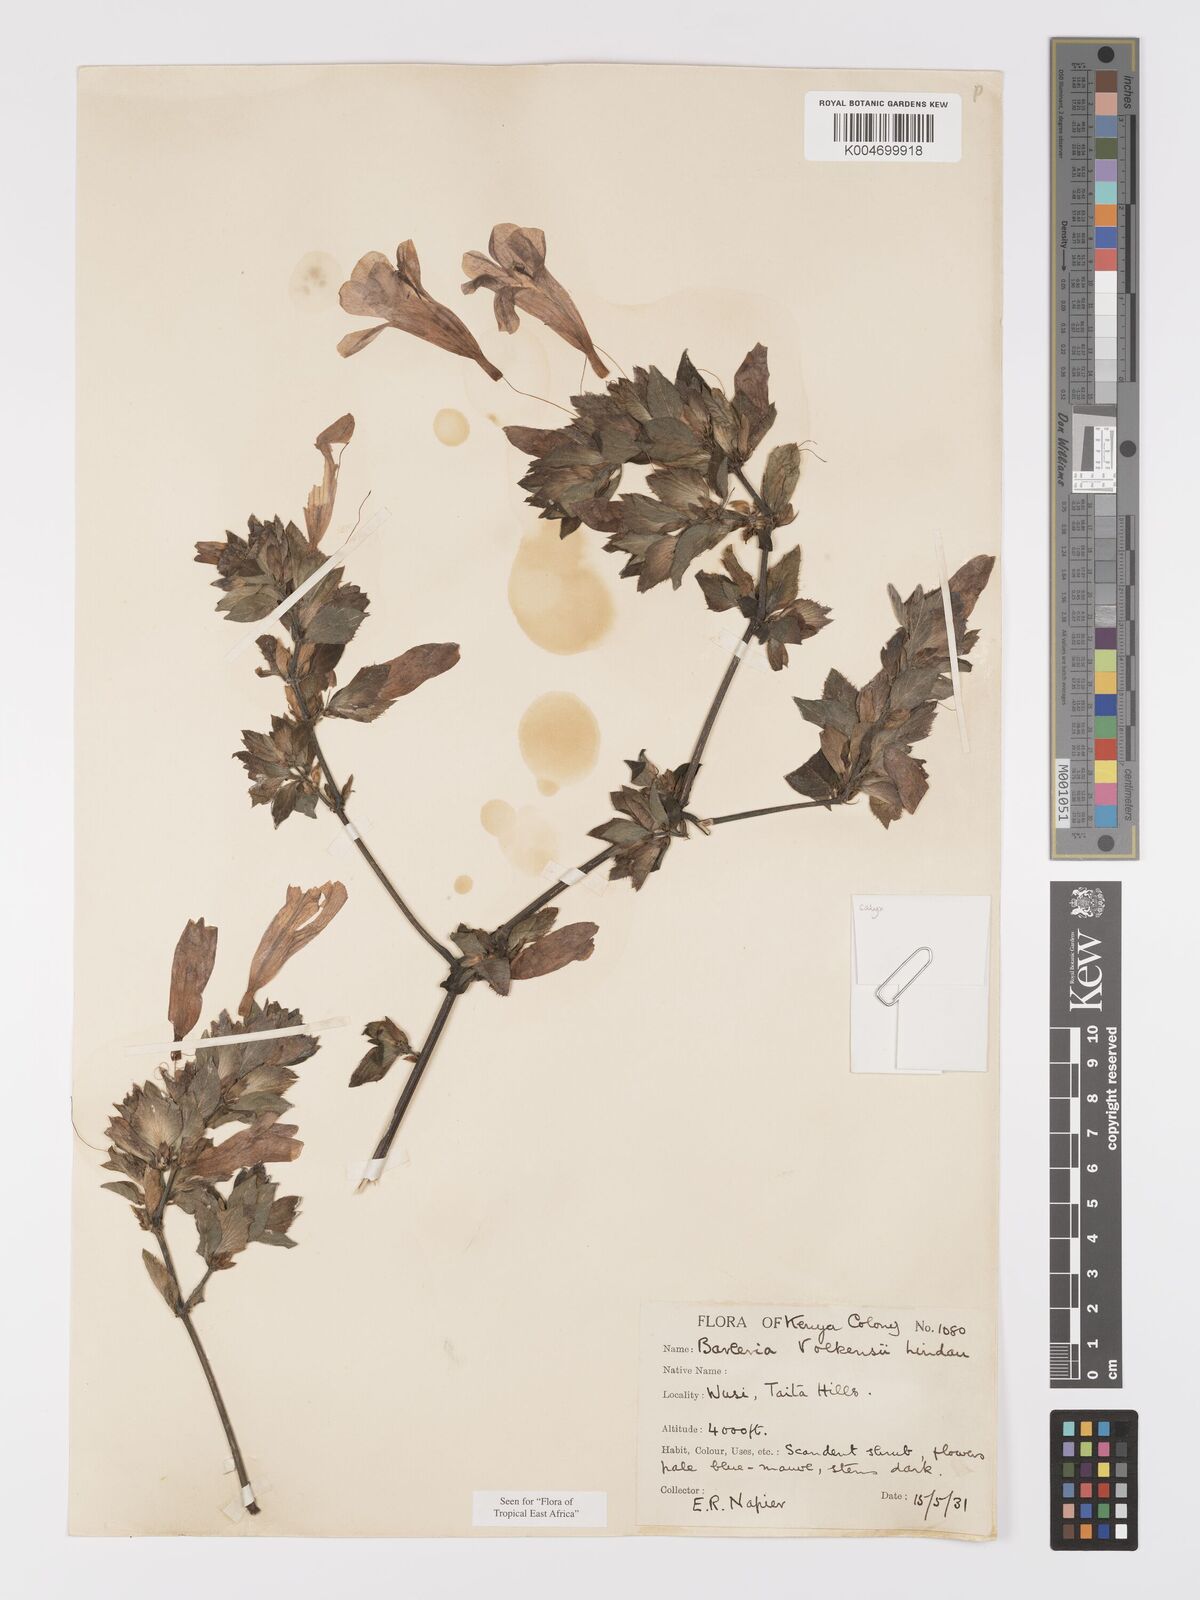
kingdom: Plantae
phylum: Tracheophyta
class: Magnoliopsida
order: Lamiales
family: Acanthaceae
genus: Barleria
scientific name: Barleria volkensii
